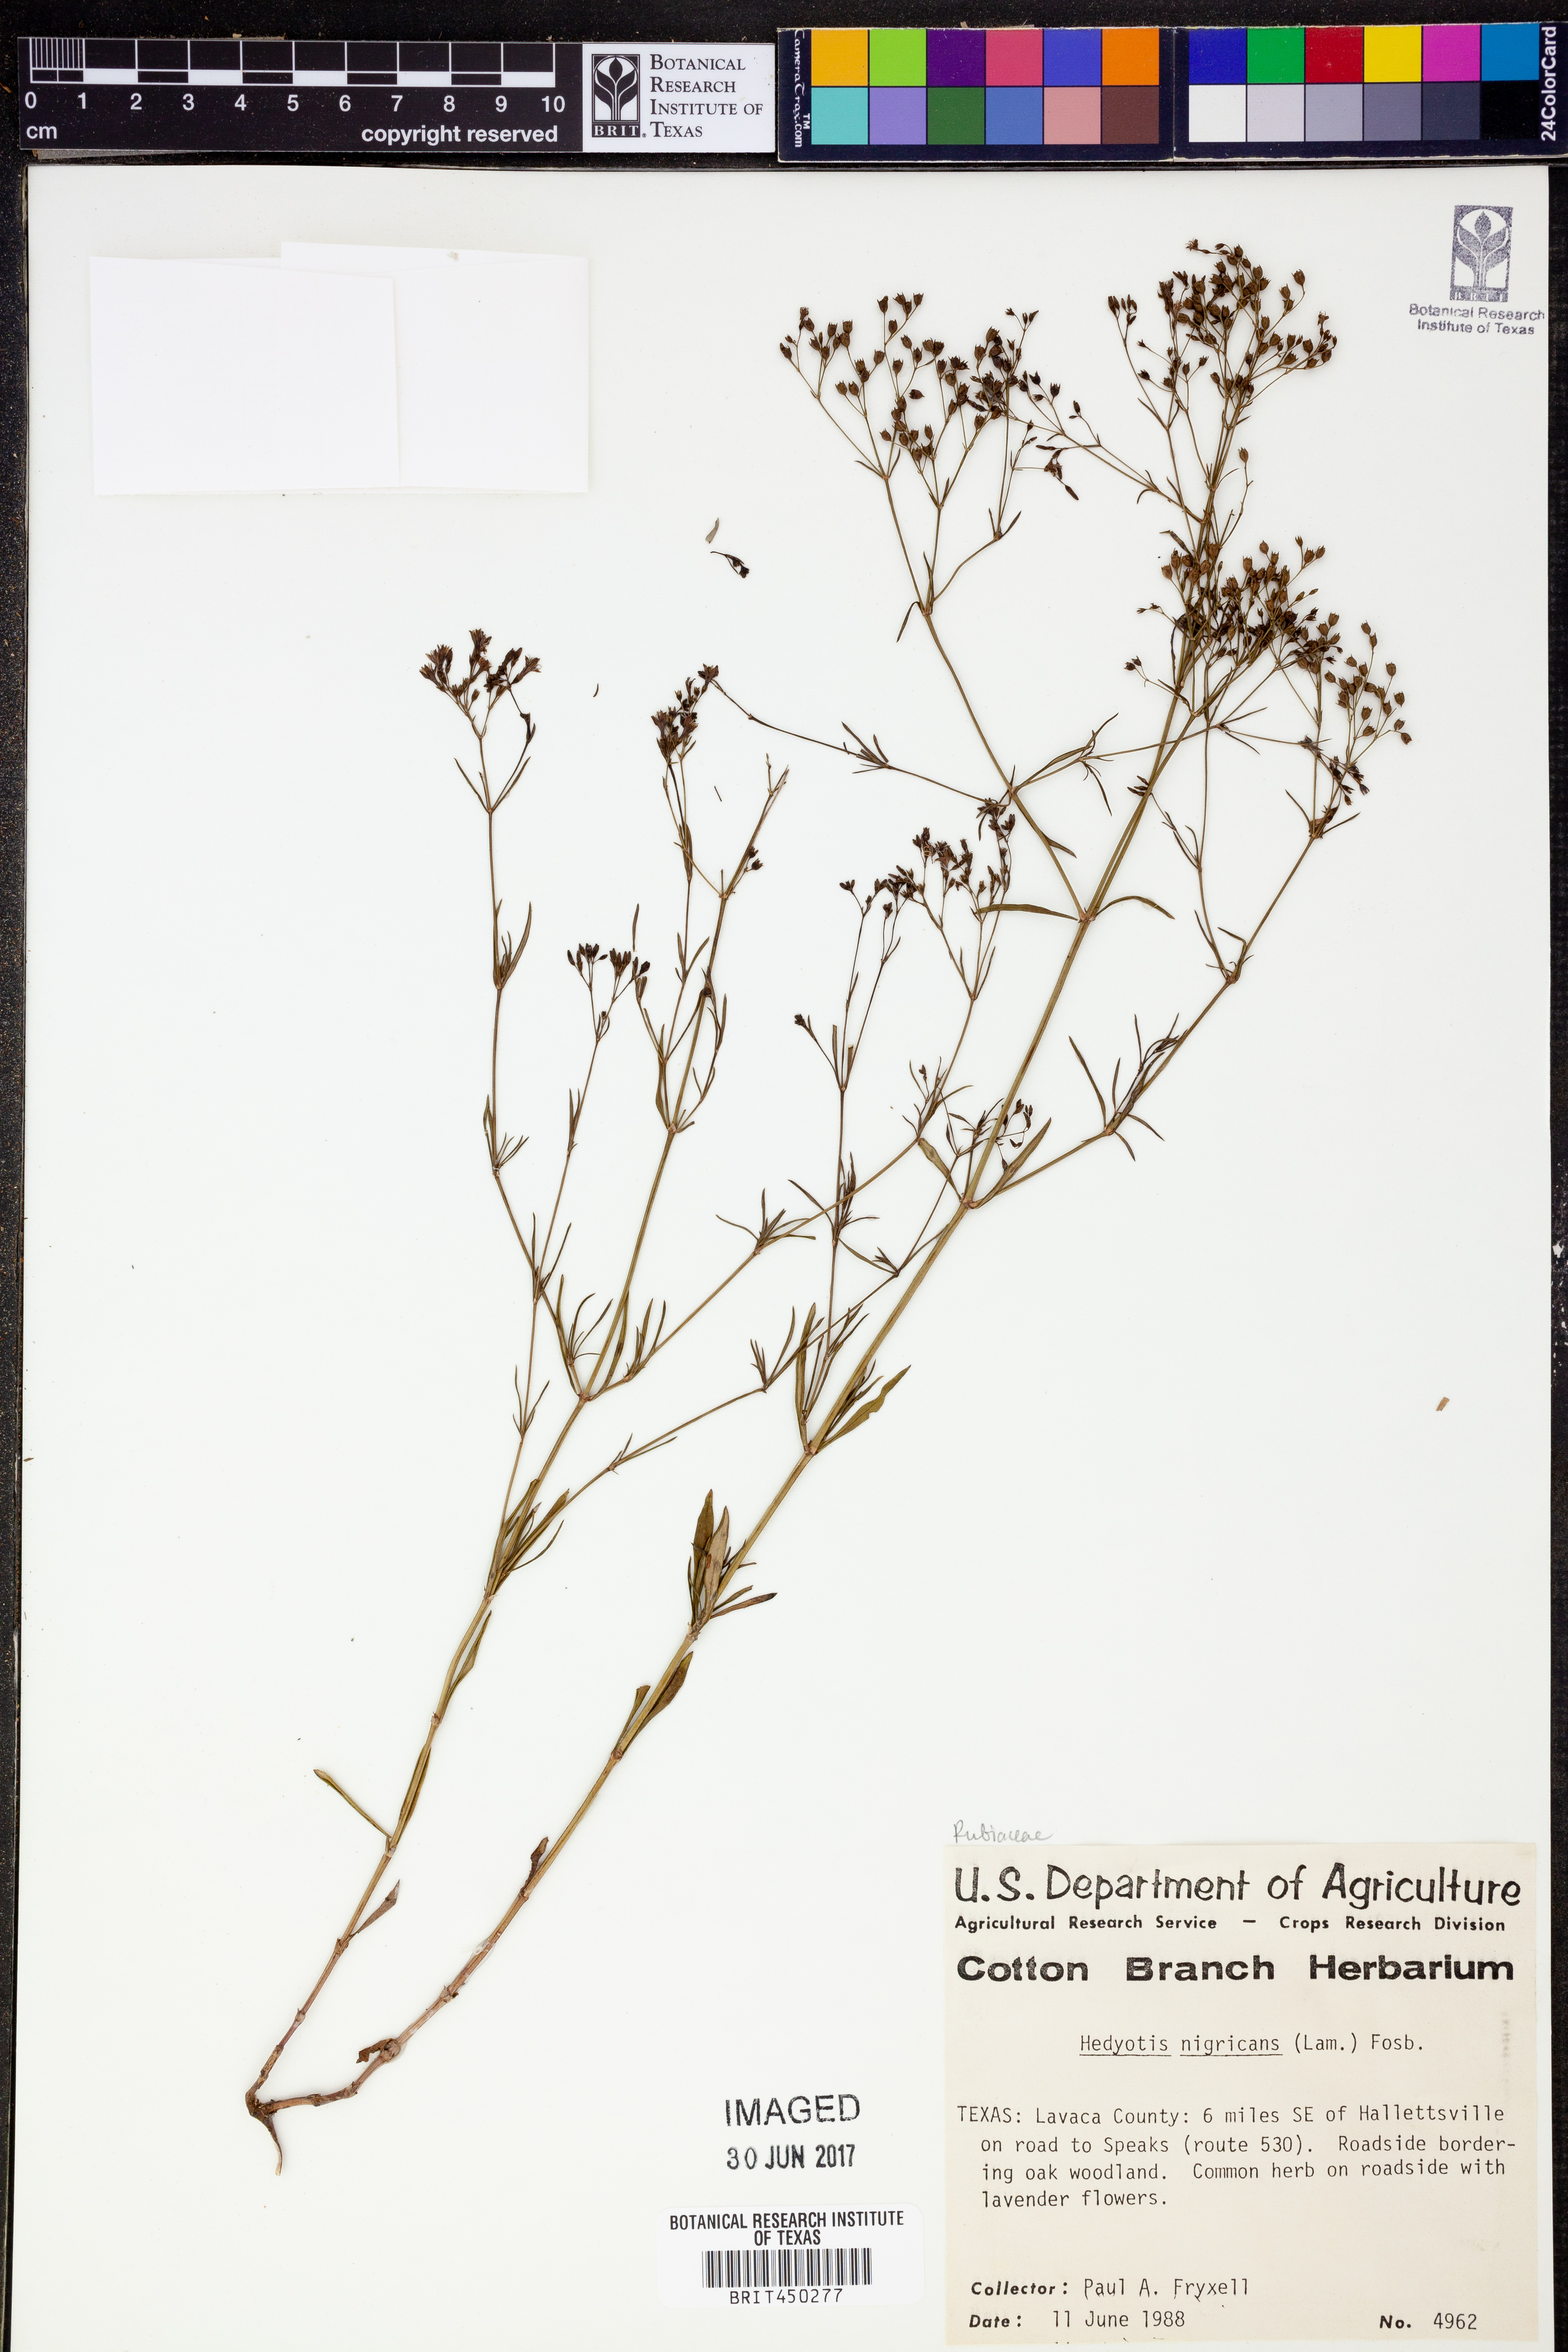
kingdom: Plantae
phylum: Tracheophyta
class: Magnoliopsida
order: Gentianales
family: Rubiaceae
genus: Stenaria
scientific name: Stenaria nigricans
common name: Diamondflowers
